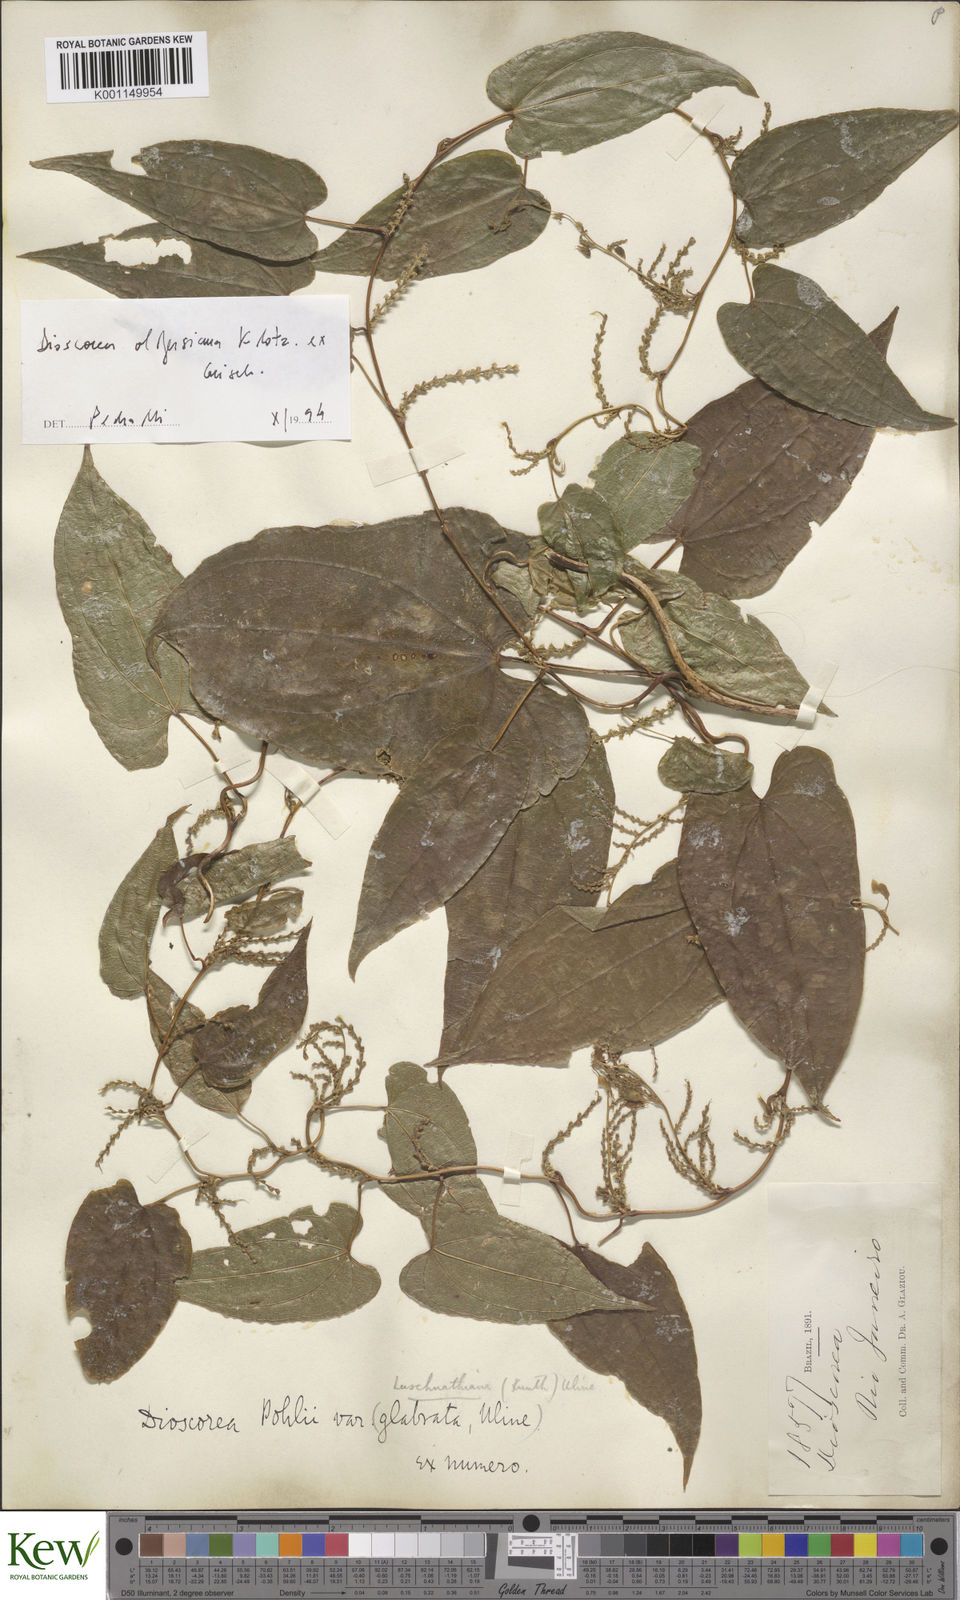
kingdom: Plantae
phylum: Tracheophyta
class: Liliopsida
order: Dioscoreales
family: Dioscoreaceae
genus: Dioscorea
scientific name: Dioscorea pohlii
